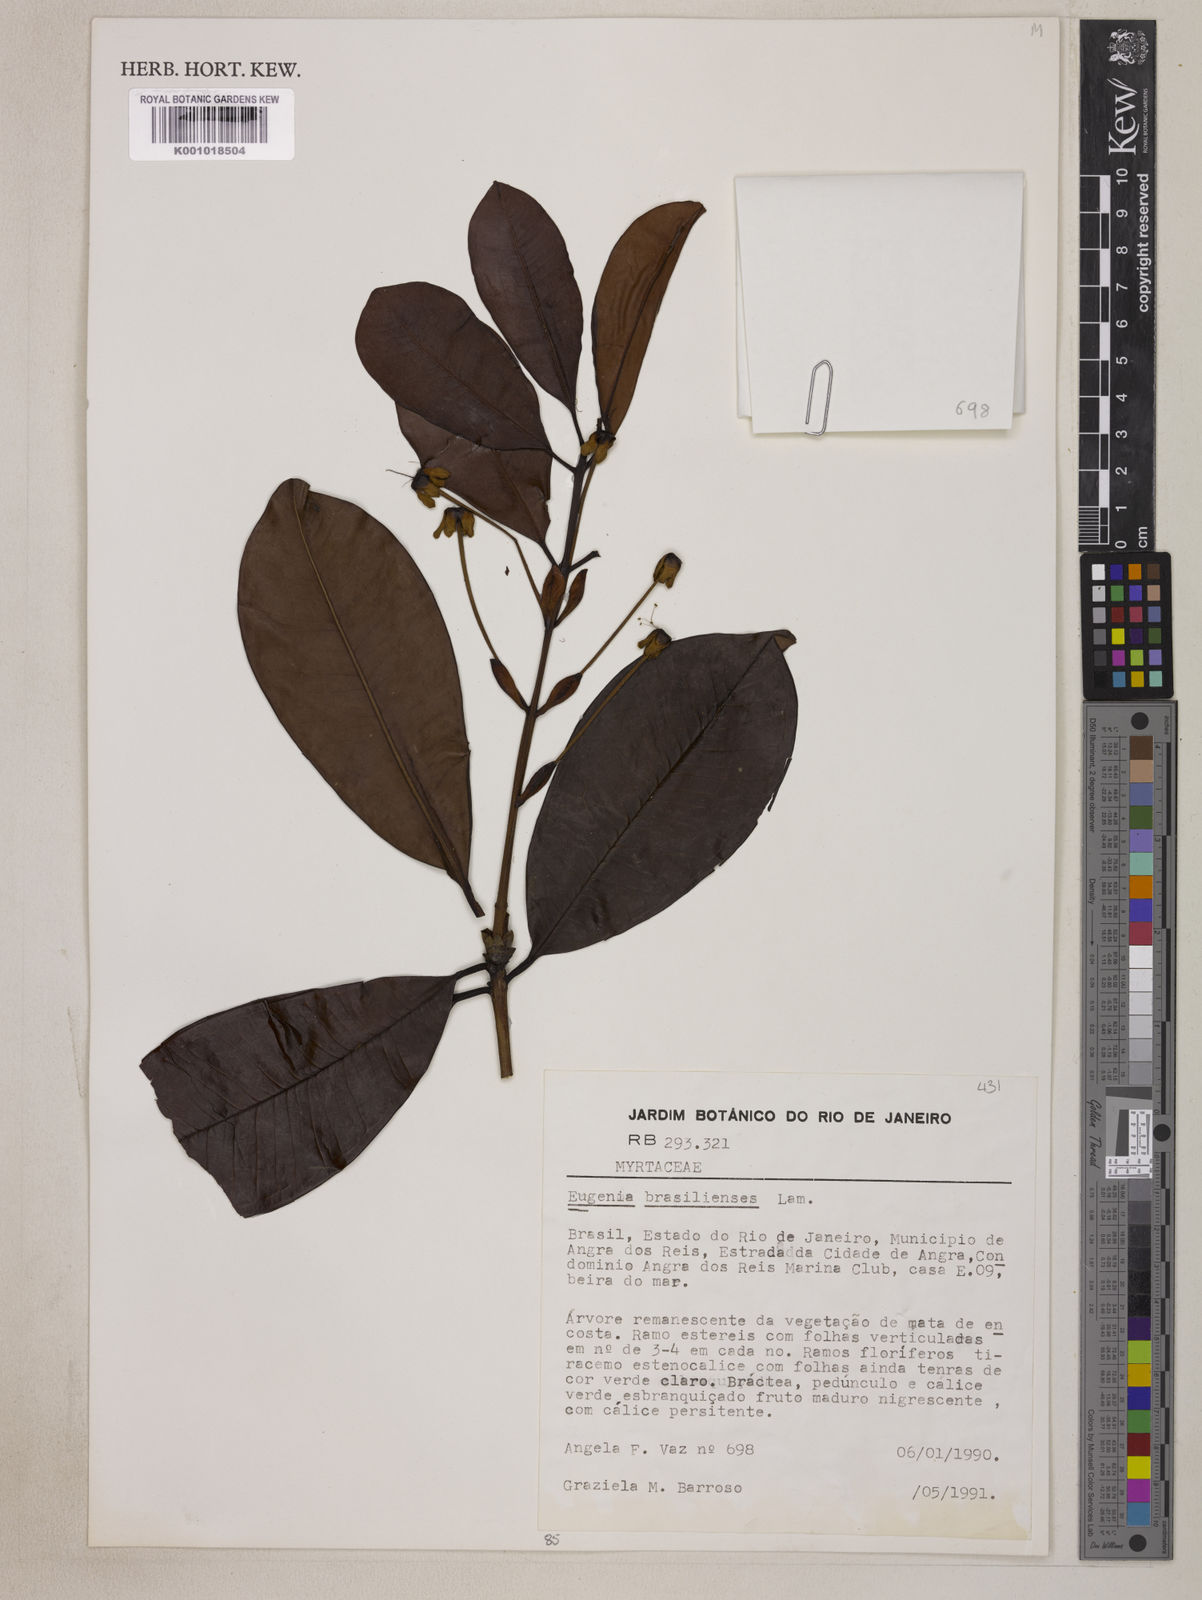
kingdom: Plantae
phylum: Tracheophyta
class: Magnoliopsida
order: Myrtales
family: Myrtaceae
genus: Eugenia
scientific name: Eugenia brasiliensis
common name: Grumichama
